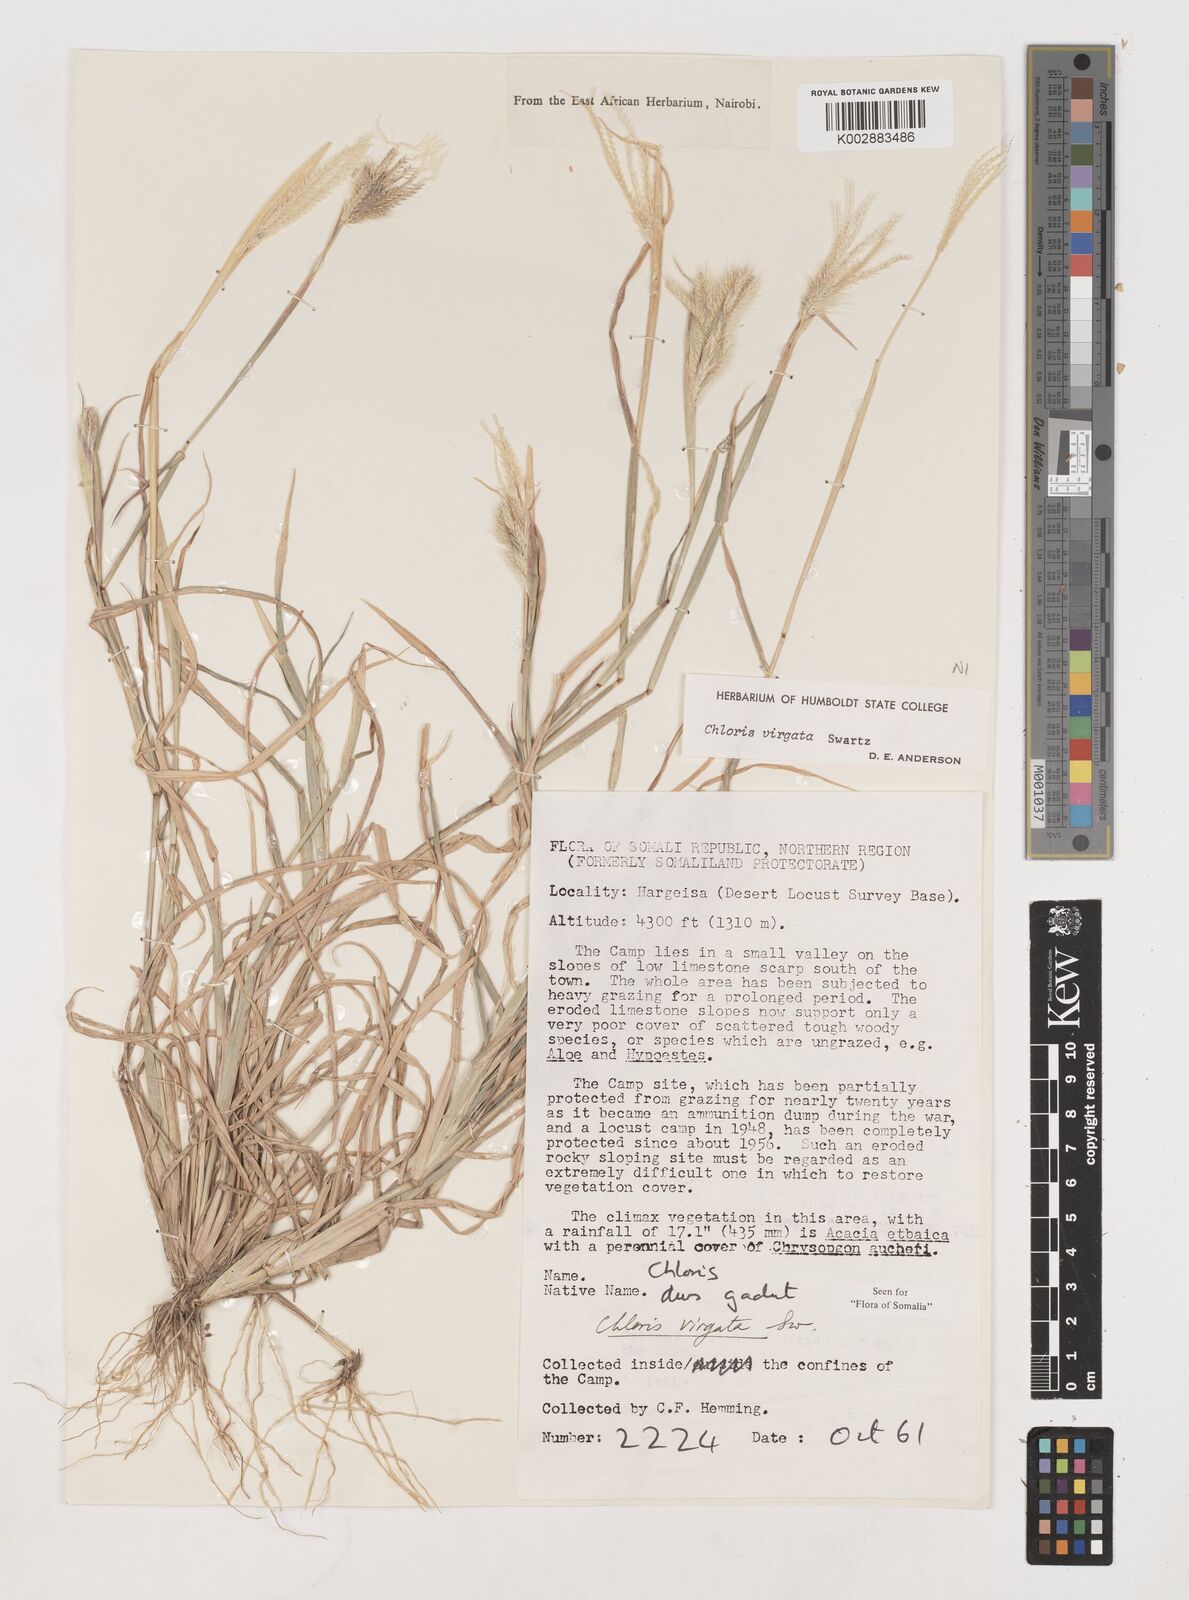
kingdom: Plantae
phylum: Tracheophyta
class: Liliopsida
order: Poales
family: Poaceae
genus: Chloris
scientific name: Chloris virgata
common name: Feathery rhodes-grass
